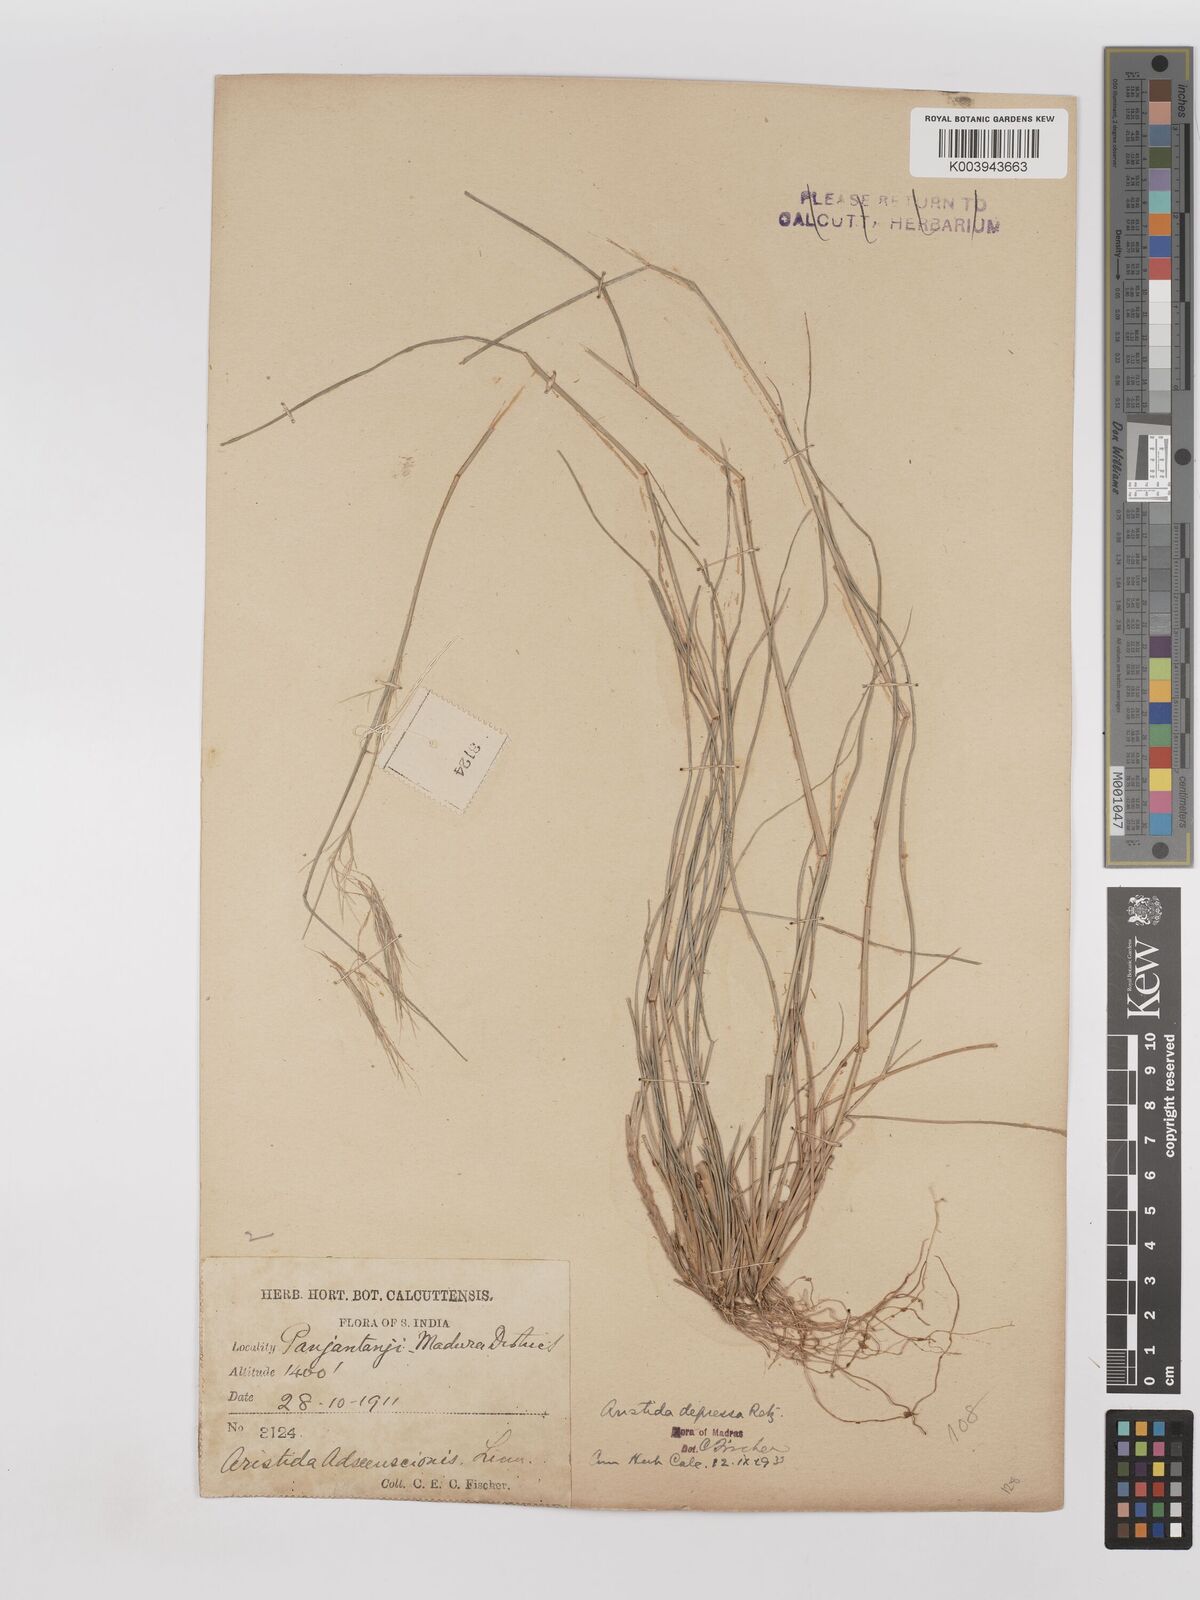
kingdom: Plantae
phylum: Tracheophyta
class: Liliopsida
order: Poales
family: Poaceae
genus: Aristida
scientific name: Aristida adscensionis
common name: Sixweeks threeawn
